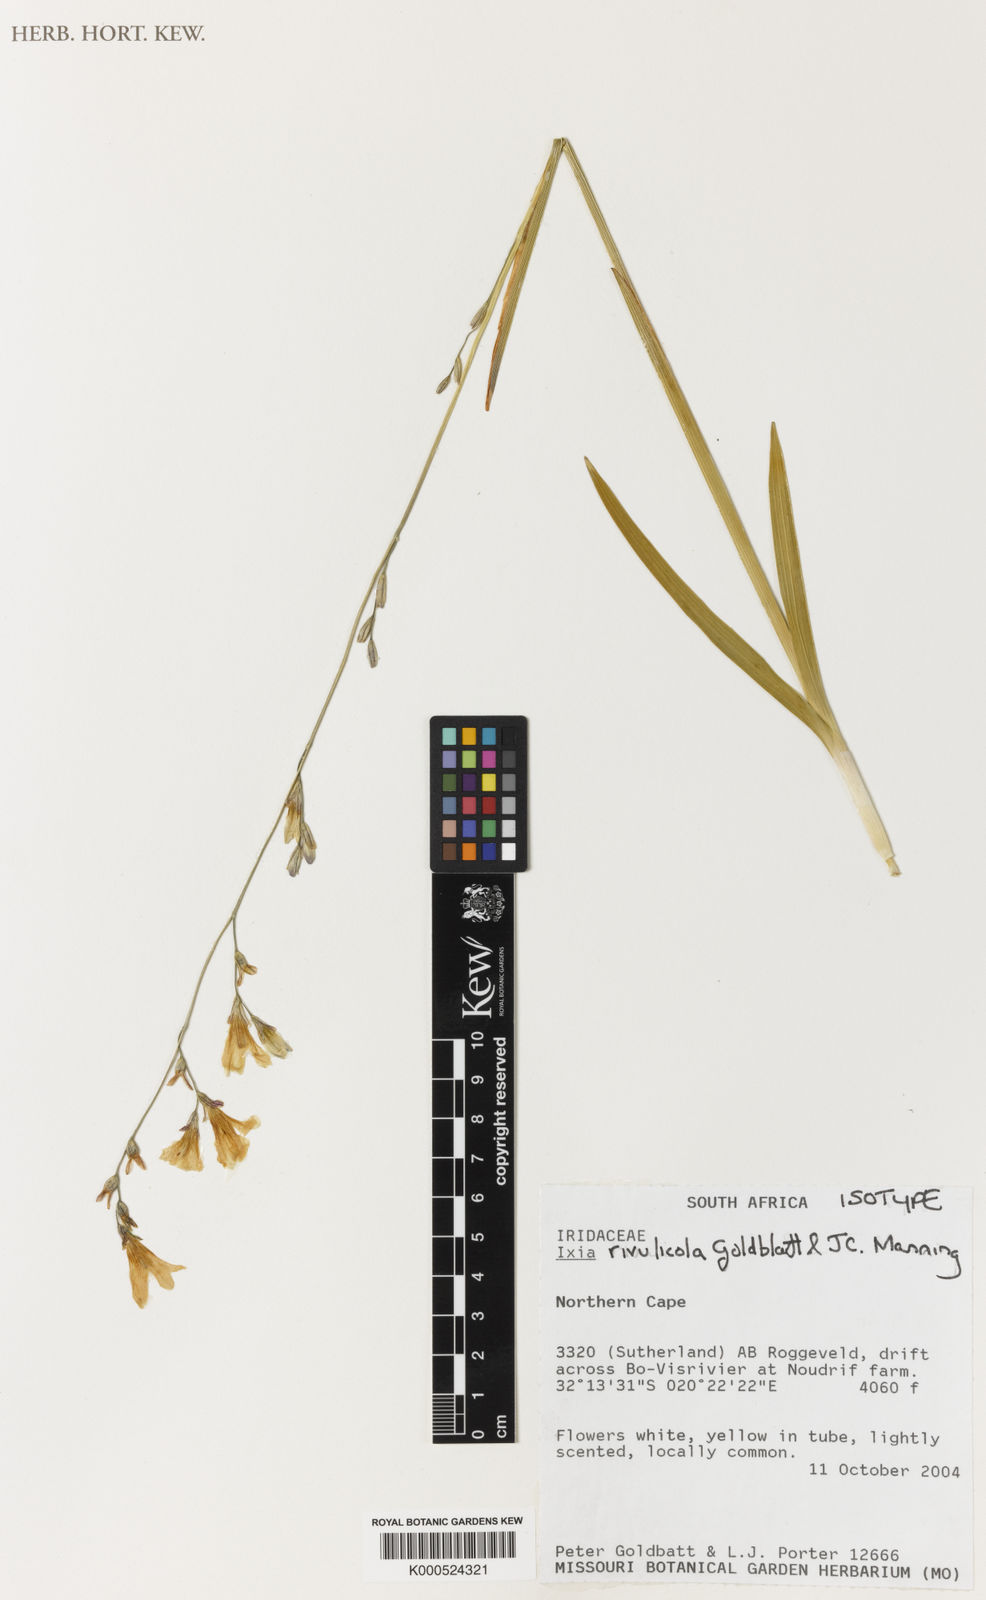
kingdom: Plantae
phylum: Tracheophyta
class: Liliopsida
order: Asparagales
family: Iridaceae
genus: Ixia
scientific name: Ixia rivulicola
